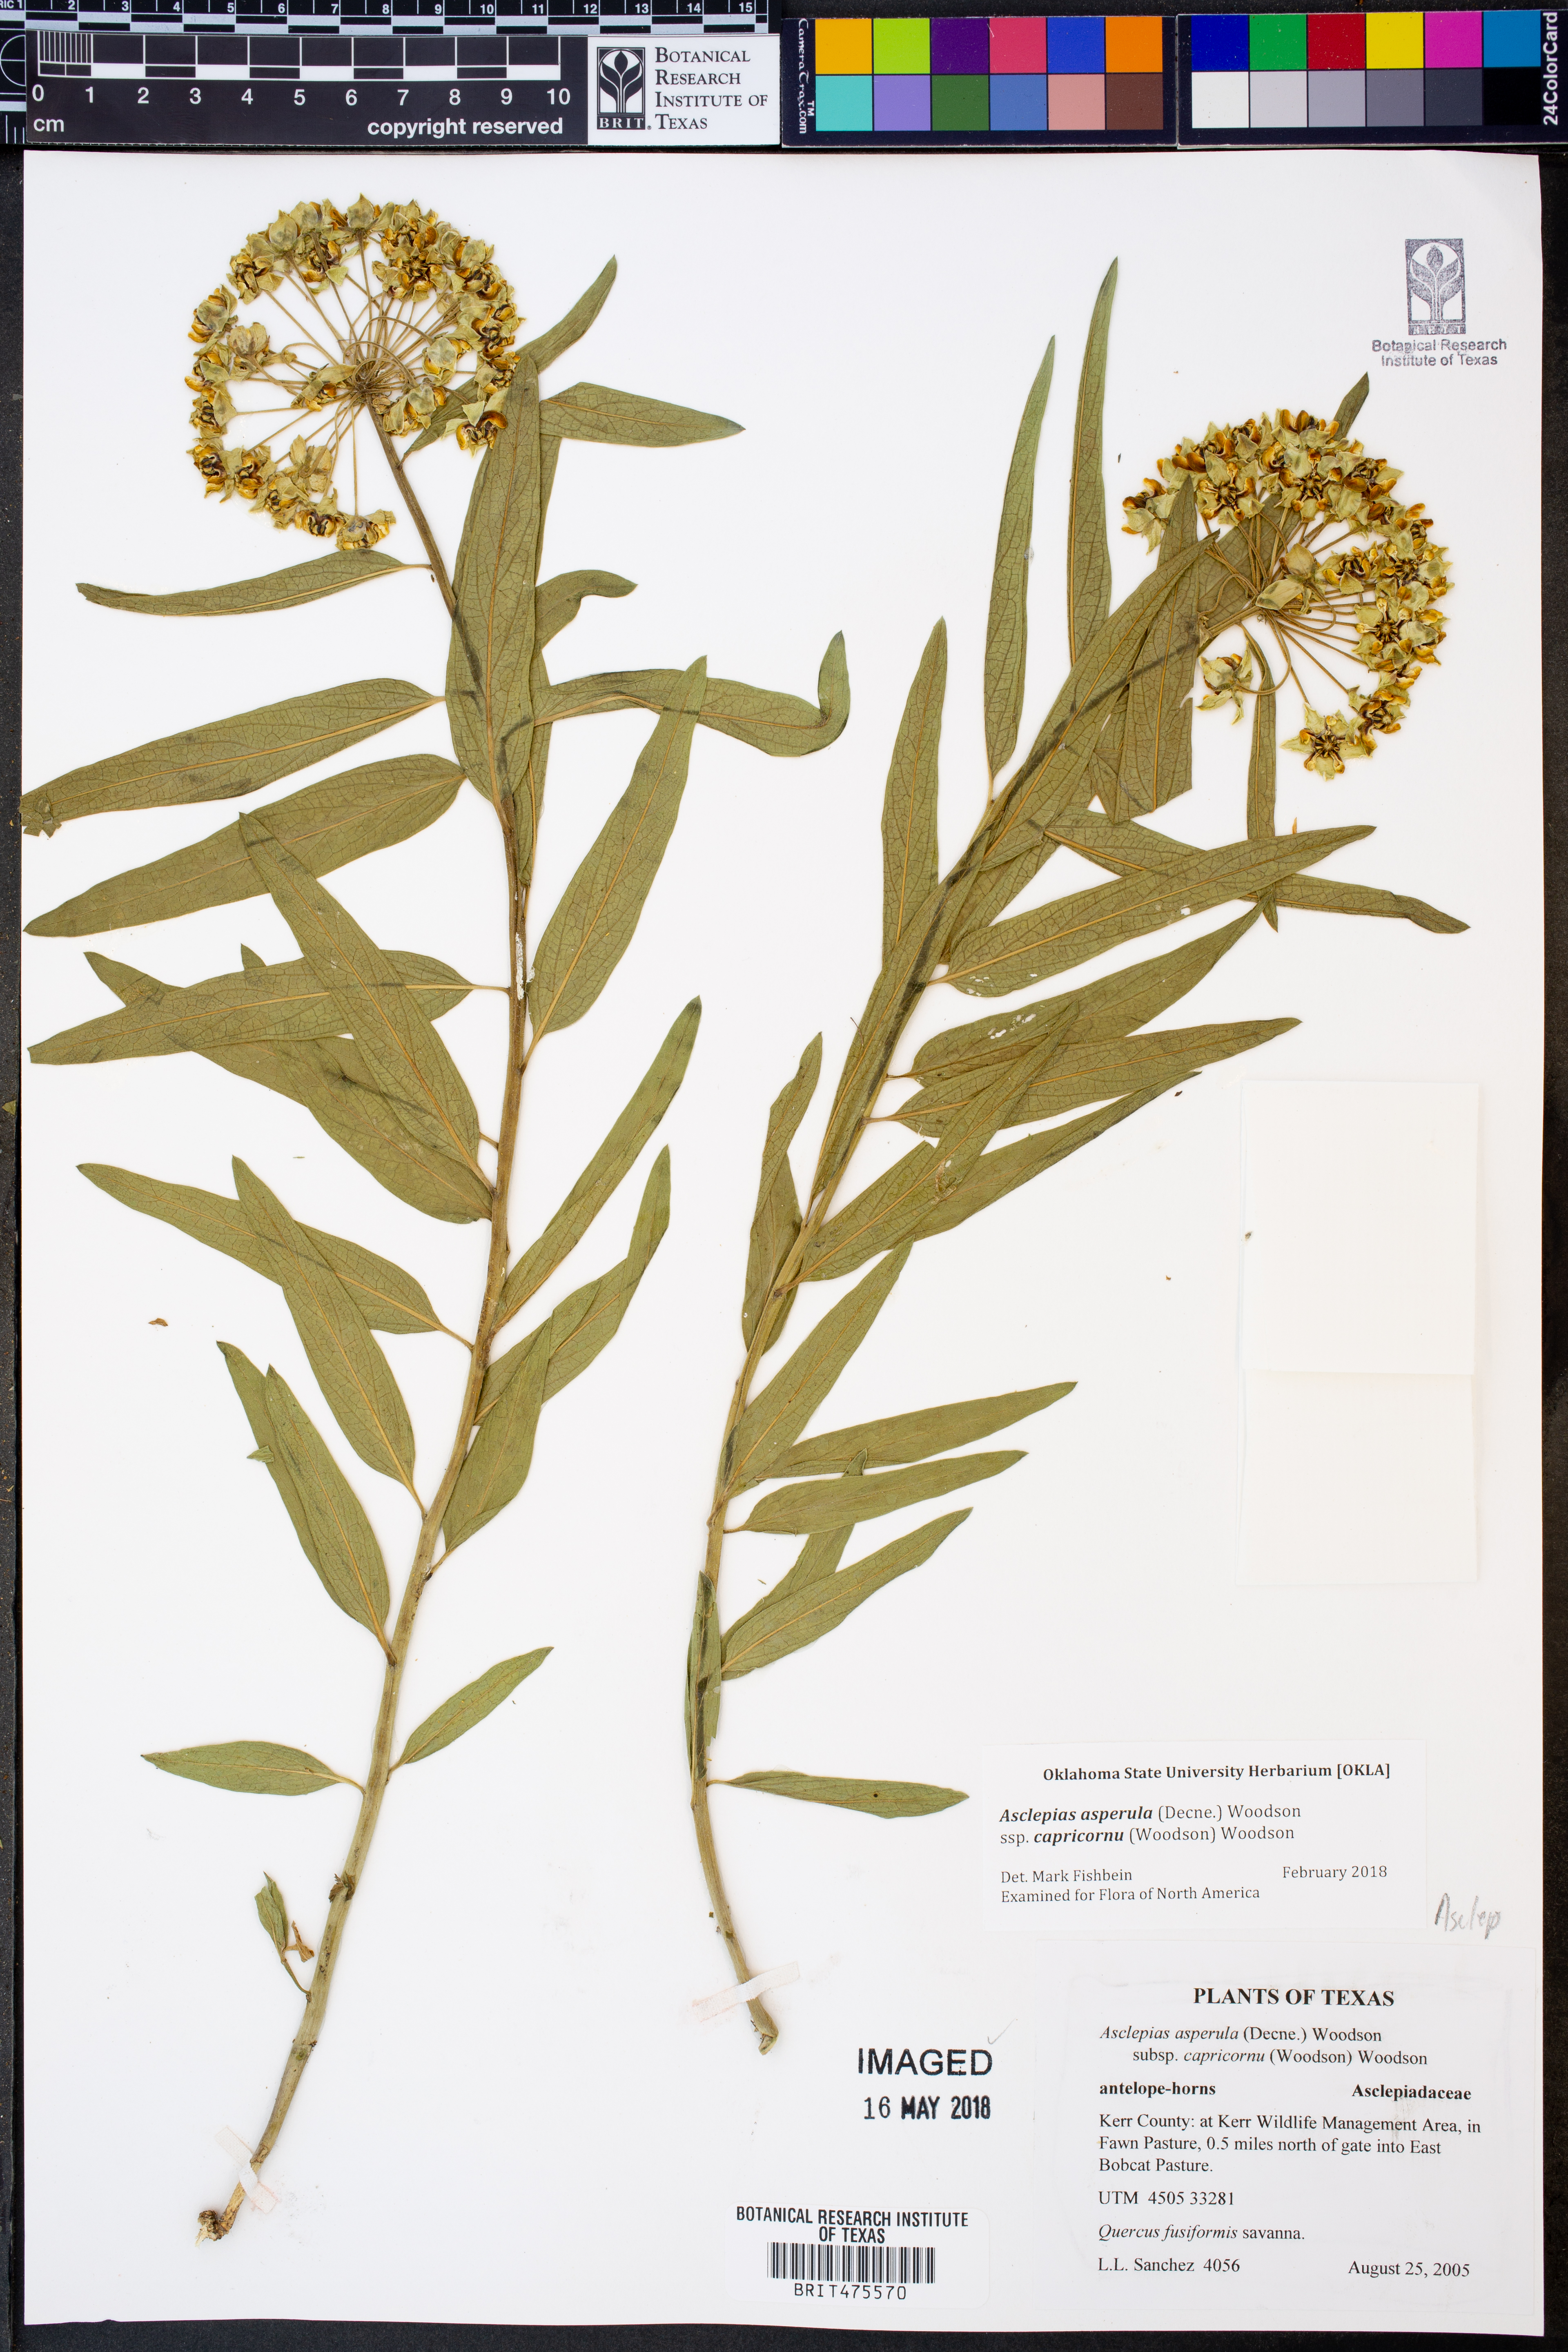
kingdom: Plantae
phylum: Tracheophyta
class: Magnoliopsida
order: Gentianales
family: Apocynaceae
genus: Asclepias
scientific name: Asclepias asperula
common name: Antelope horns
